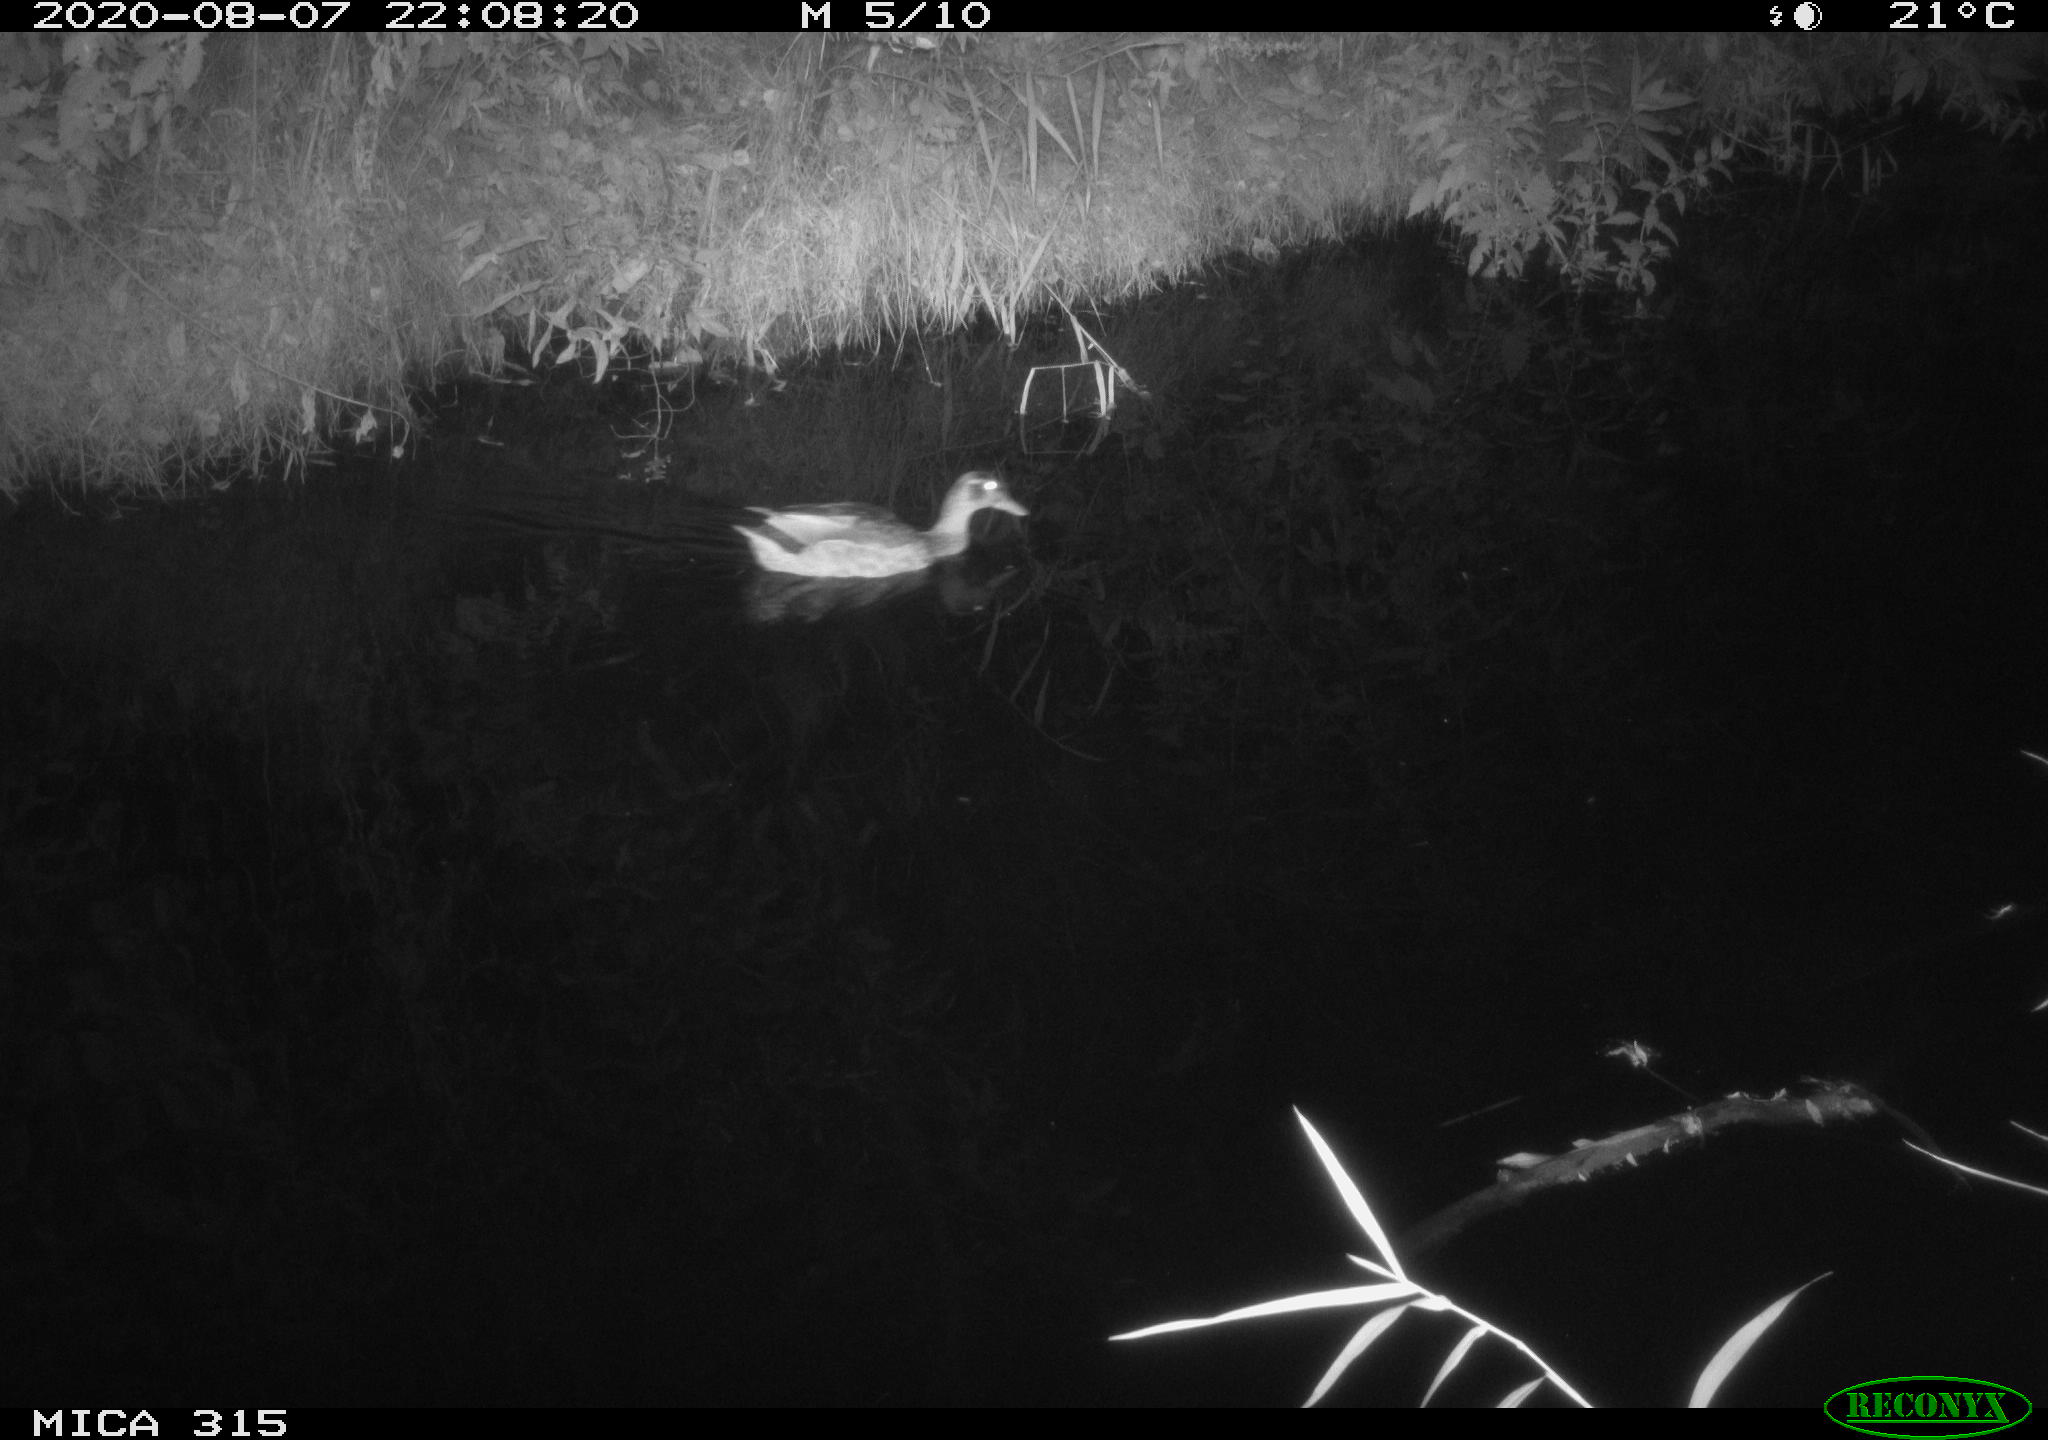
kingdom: Animalia
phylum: Chordata
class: Aves
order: Anseriformes
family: Anatidae
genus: Anas
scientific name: Anas platyrhynchos
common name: Mallard
